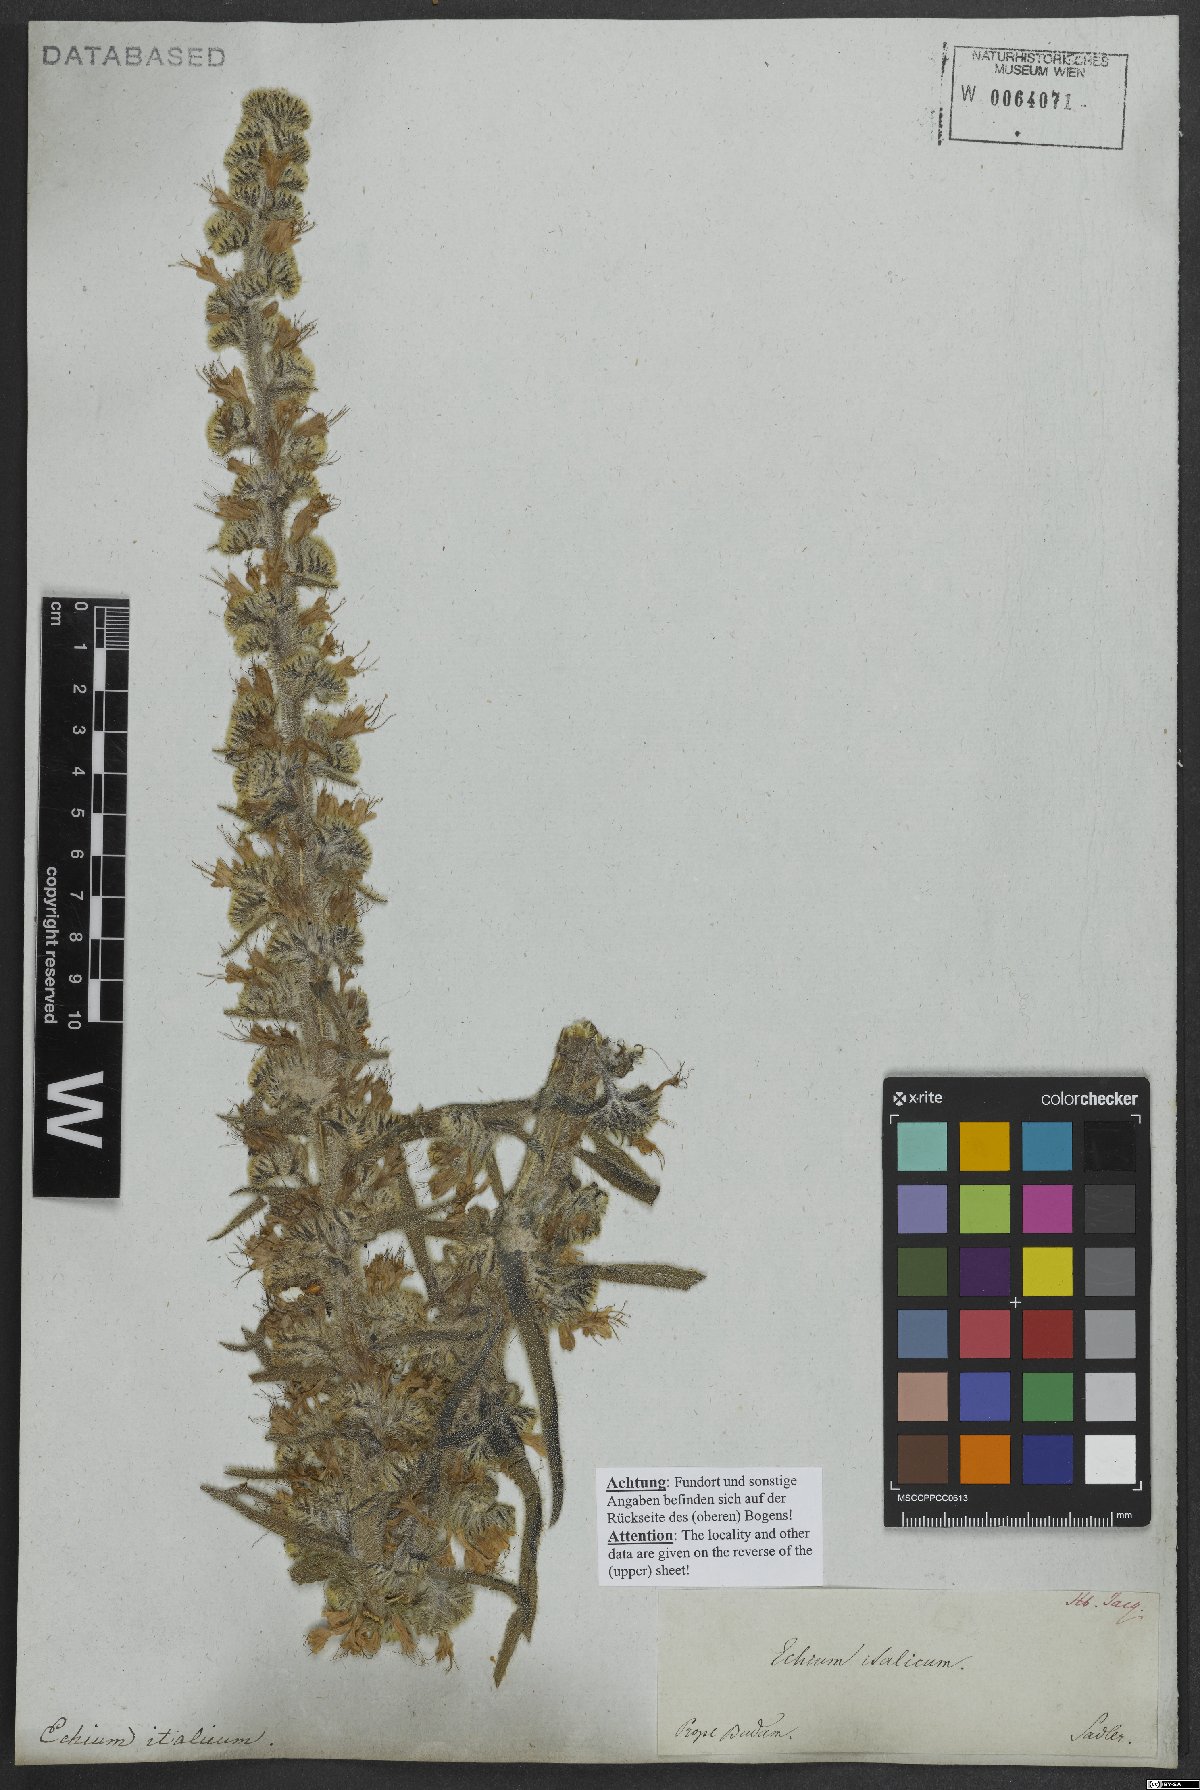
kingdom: Plantae
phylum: Tracheophyta
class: Magnoliopsida
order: Boraginales
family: Boraginaceae
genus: Echium
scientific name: Echium italicum
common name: Italian viper's bugloss
